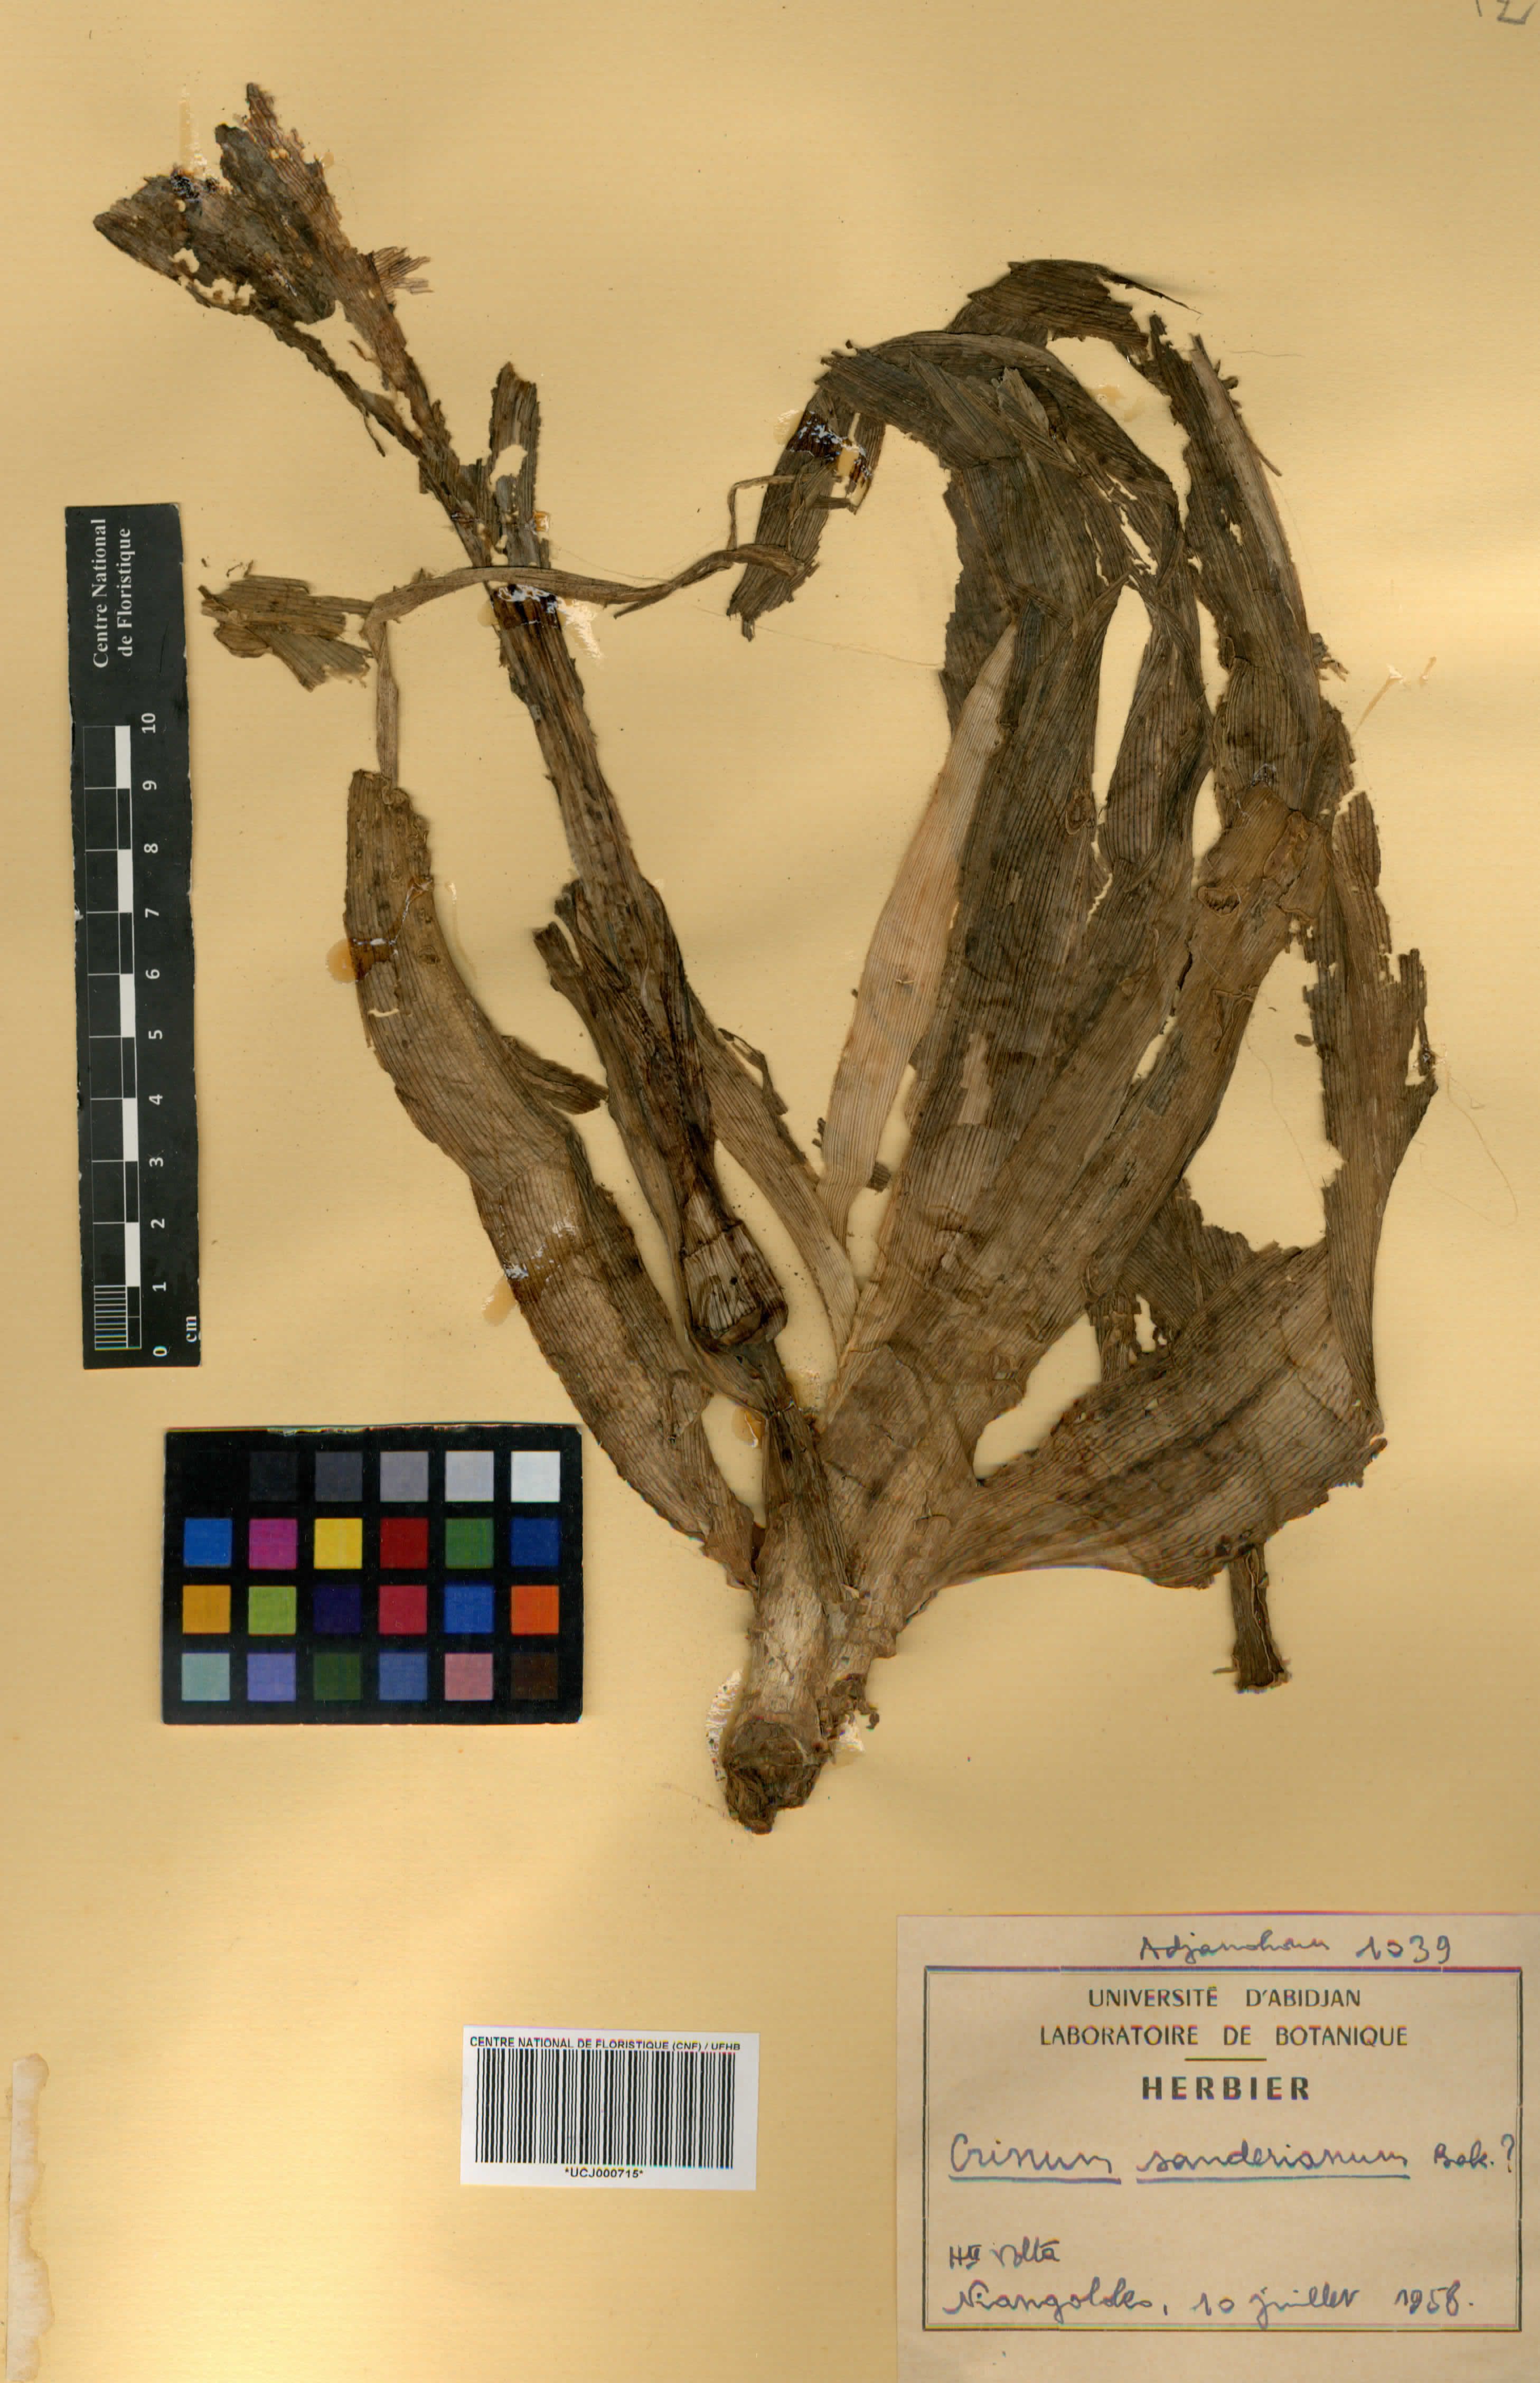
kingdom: Plantae
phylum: Tracheophyta
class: Liliopsida
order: Asparagales
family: Amaryllidaceae
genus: Crinum
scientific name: Crinum ornatum
